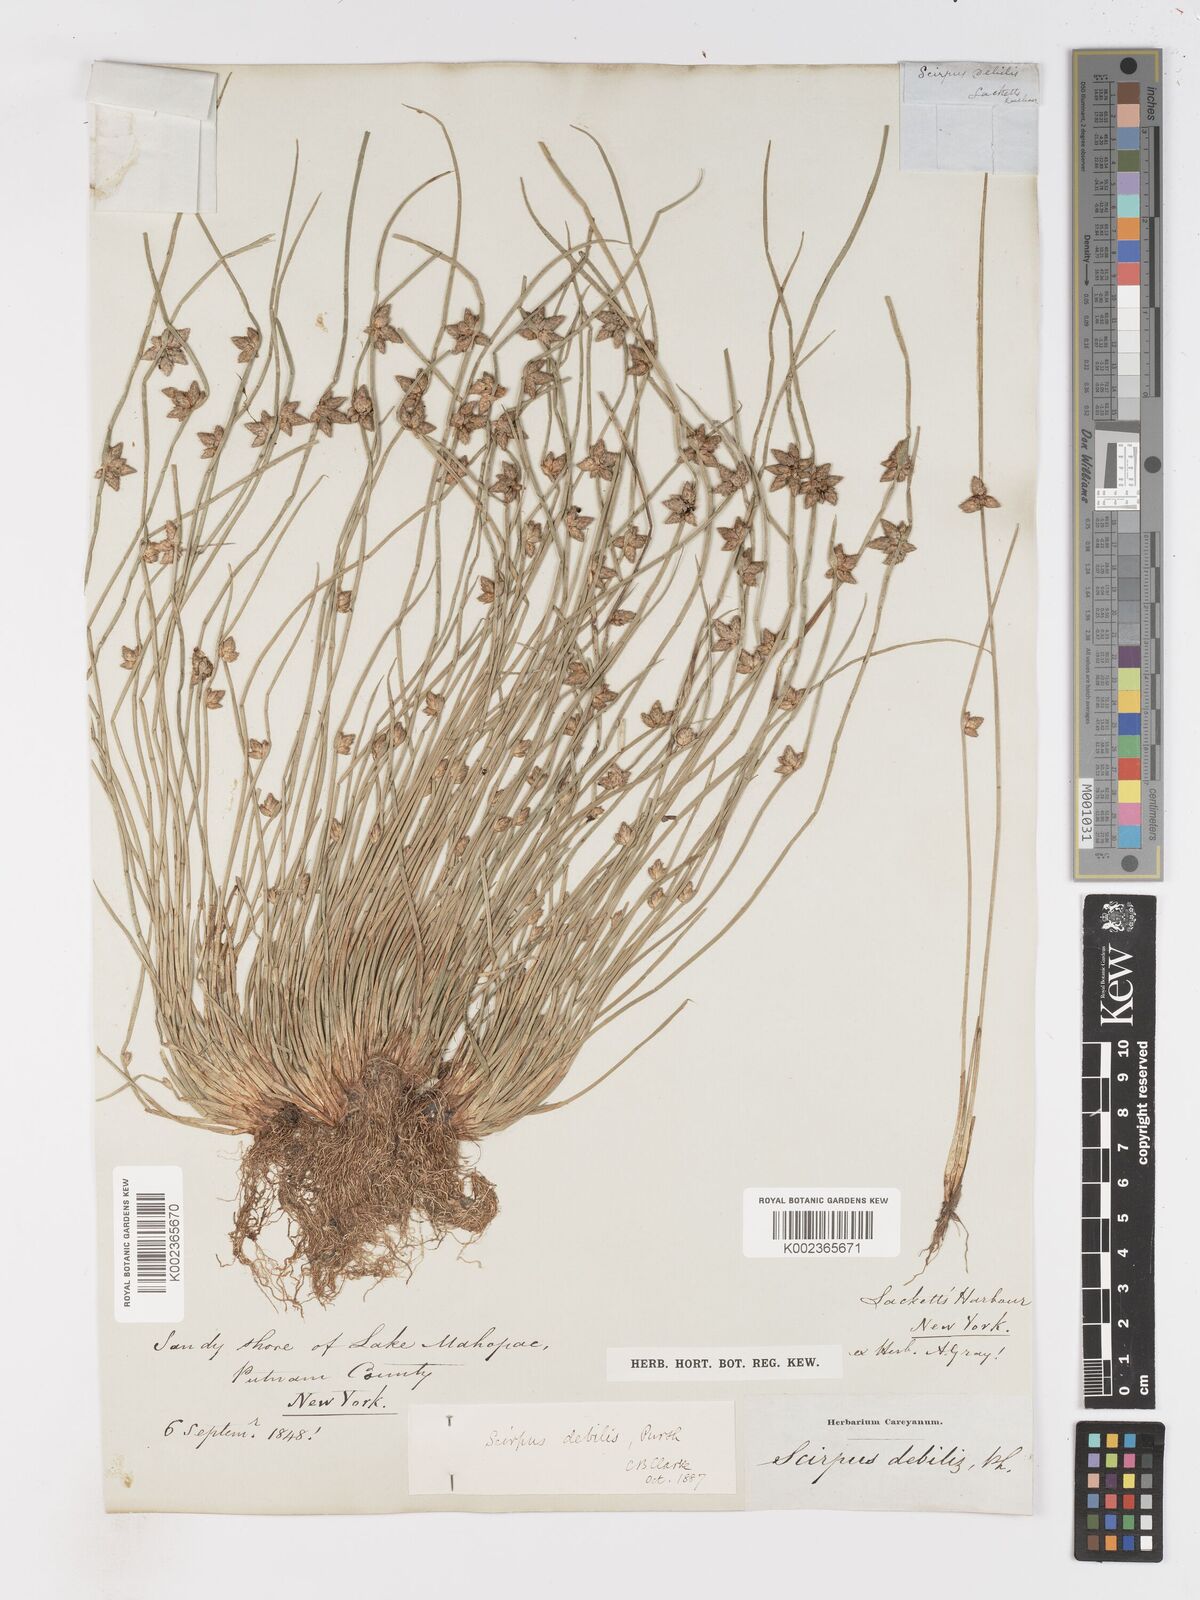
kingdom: Plantae
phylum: Tracheophyta
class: Liliopsida
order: Poales
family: Cyperaceae
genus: Schoenoplectiella
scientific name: Schoenoplectiella purshiana
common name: Weak-stalked bulrush
